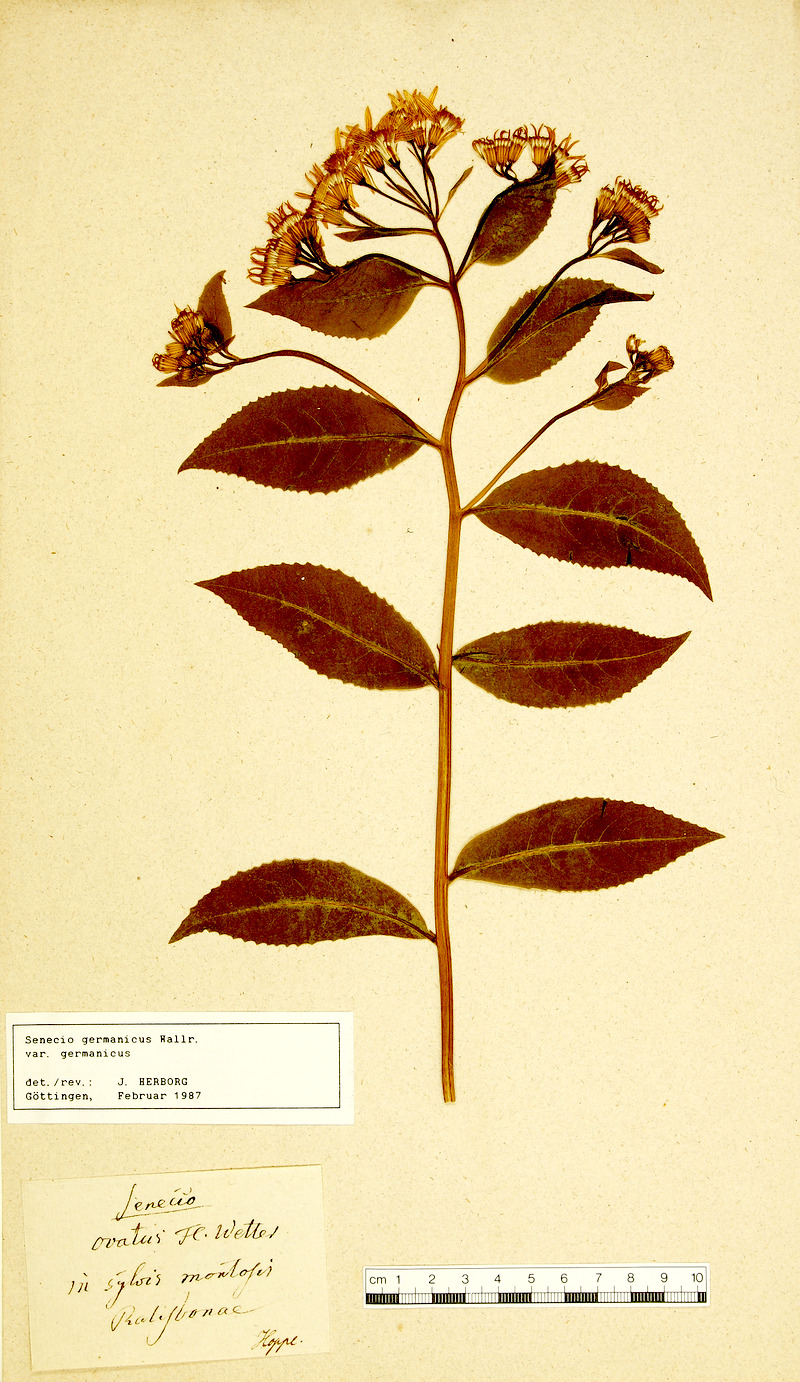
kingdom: Plantae
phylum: Tracheophyta
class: Magnoliopsida
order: Asterales
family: Asteraceae
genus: Senecio
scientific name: Senecio germanicus
